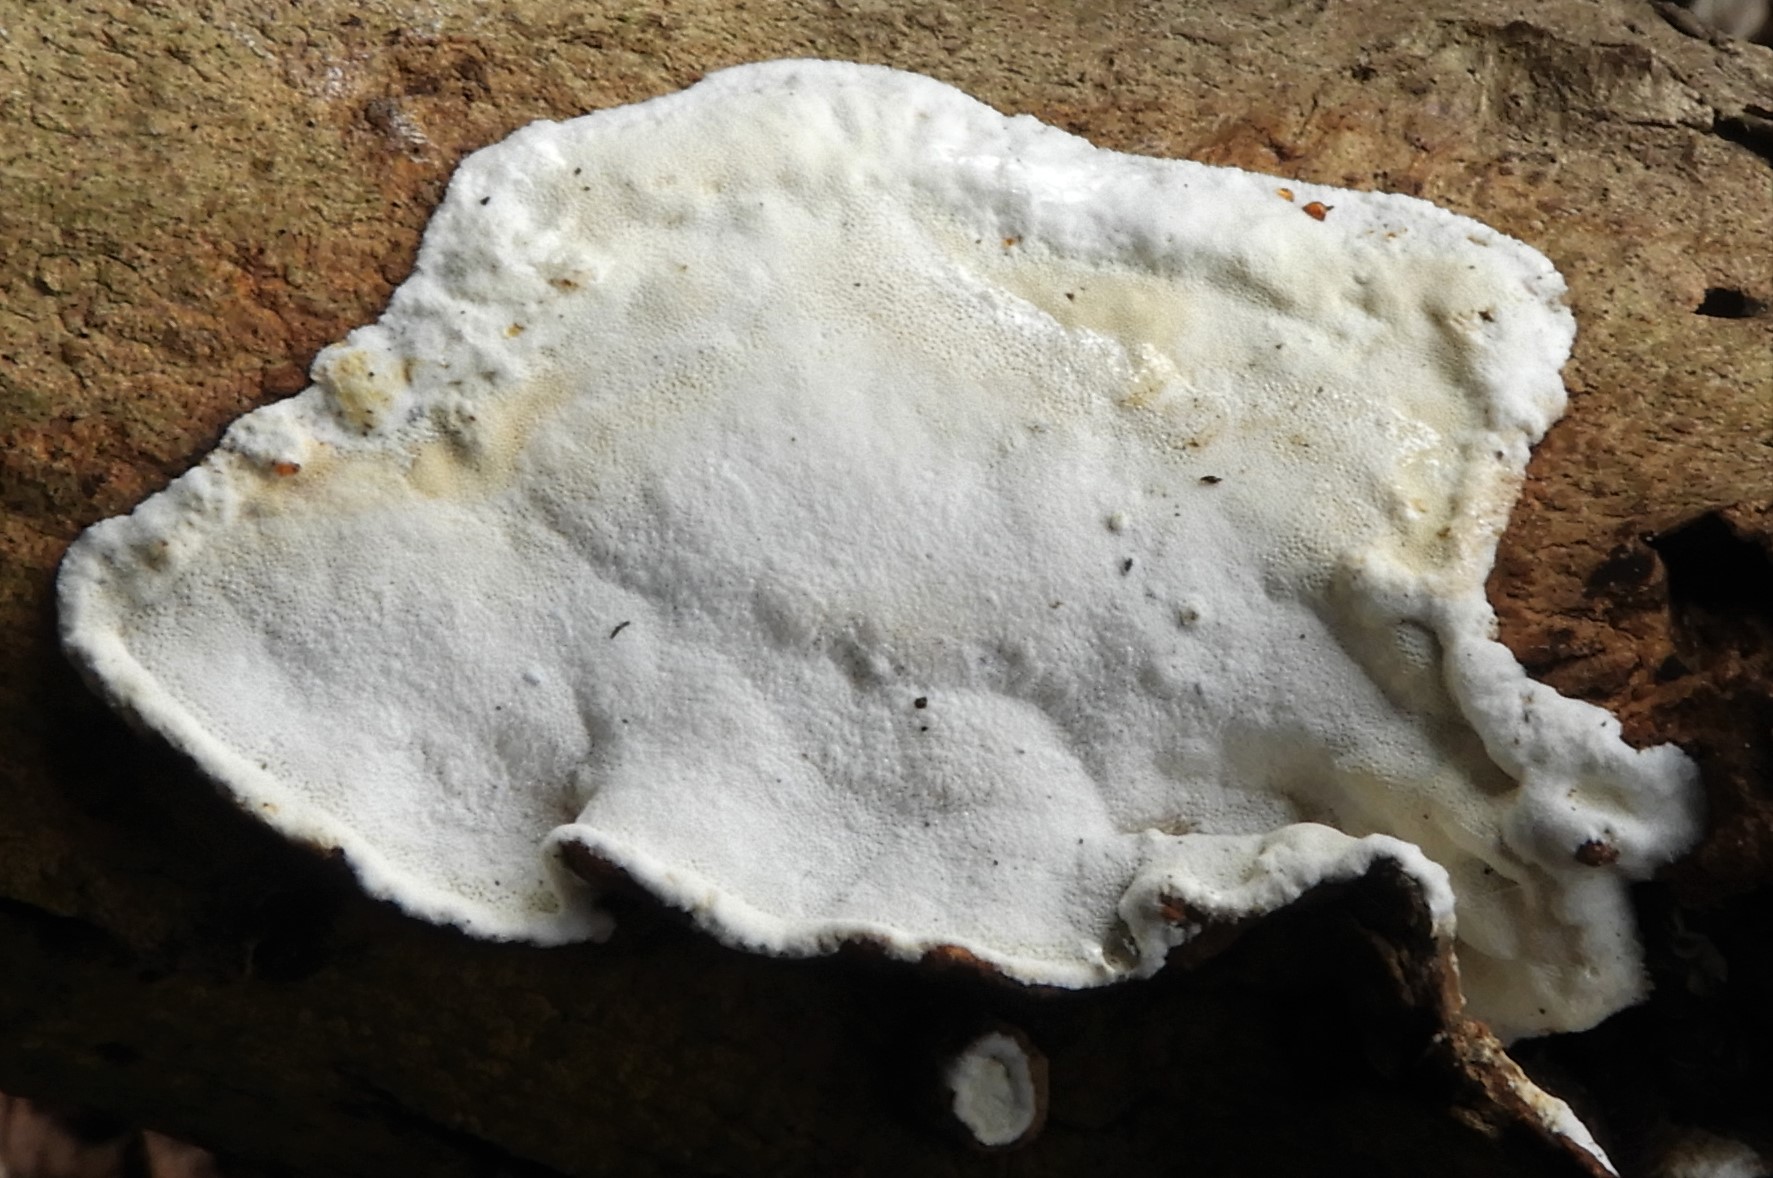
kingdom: Fungi
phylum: Basidiomycota
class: Agaricomycetes
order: Polyporales
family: Incrustoporiaceae
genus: Skeletocutis
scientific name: Skeletocutis nemoralis
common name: stor krystalporesvamp
